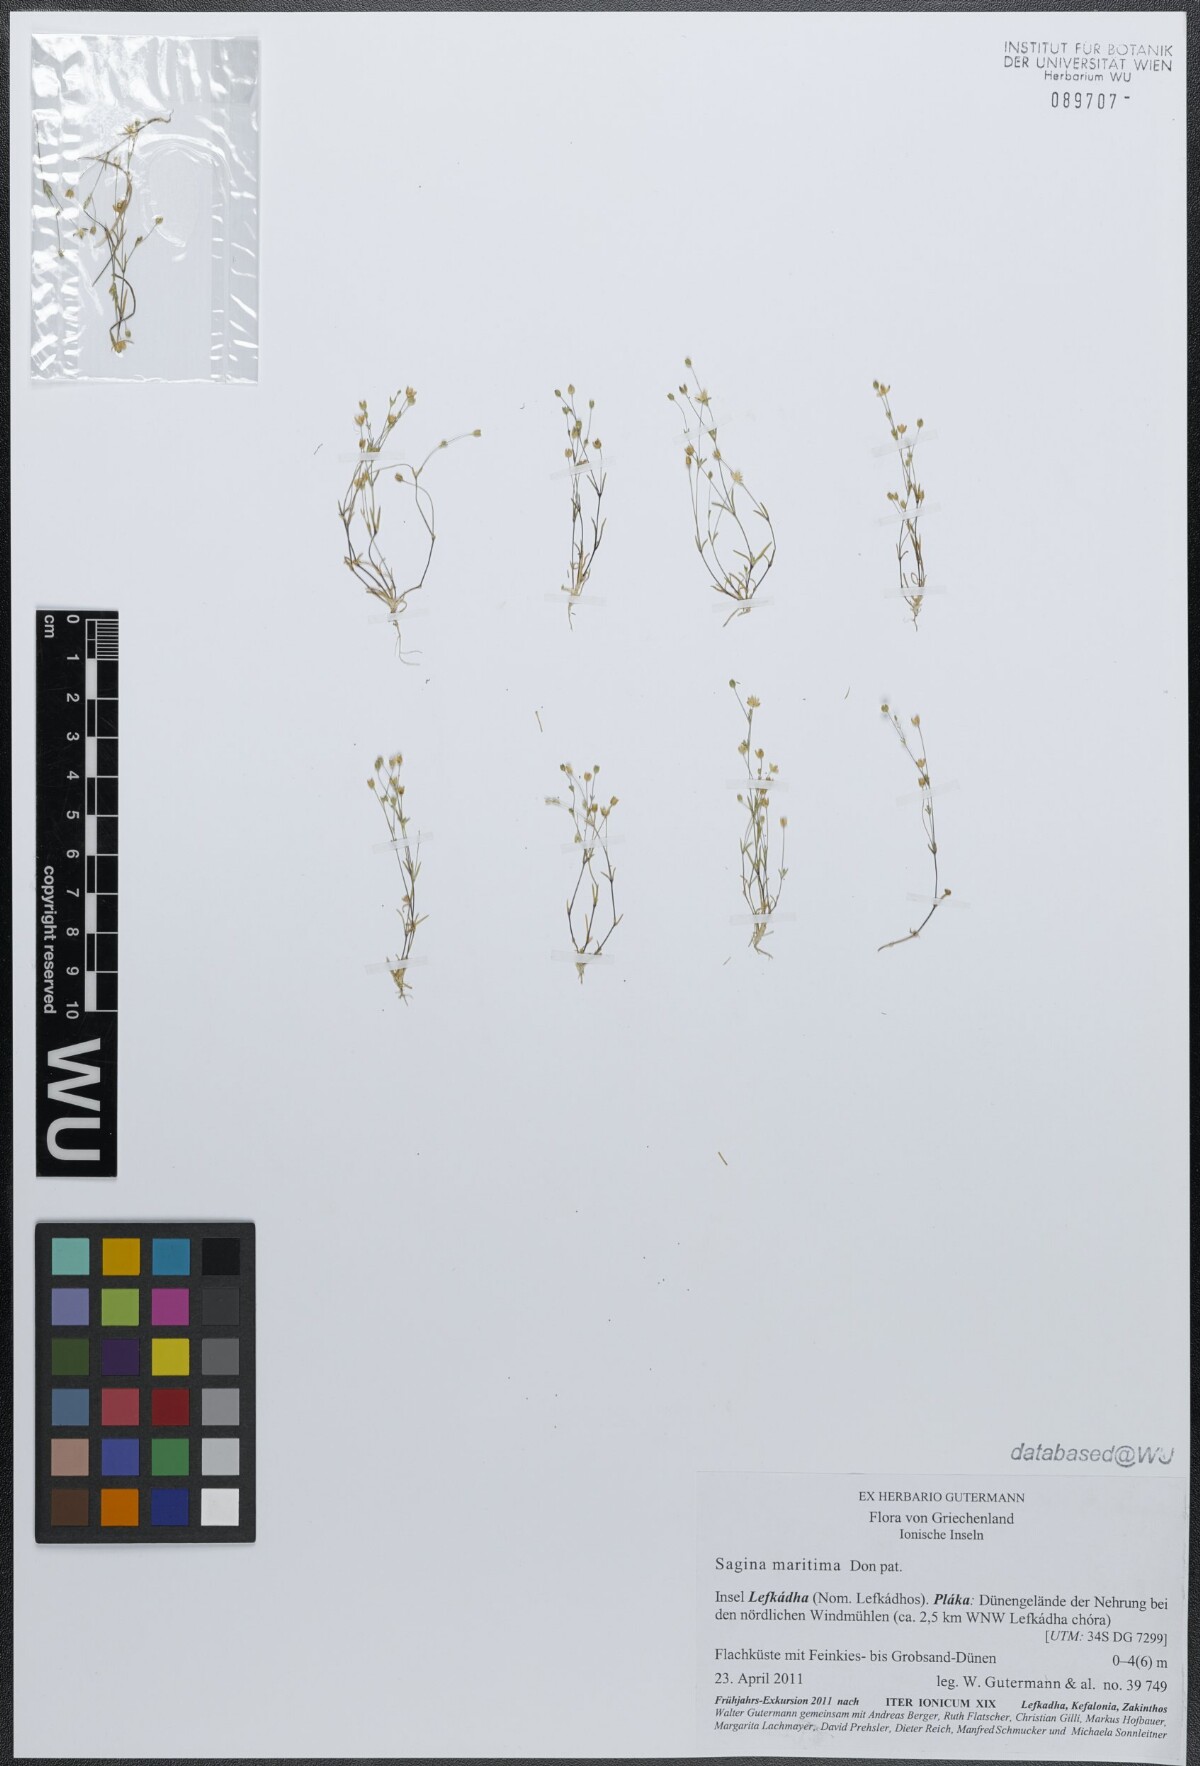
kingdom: Plantae
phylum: Tracheophyta
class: Magnoliopsida
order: Caryophyllales
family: Caryophyllaceae
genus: Sagina
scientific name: Sagina maritima
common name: Sea pearlwort
